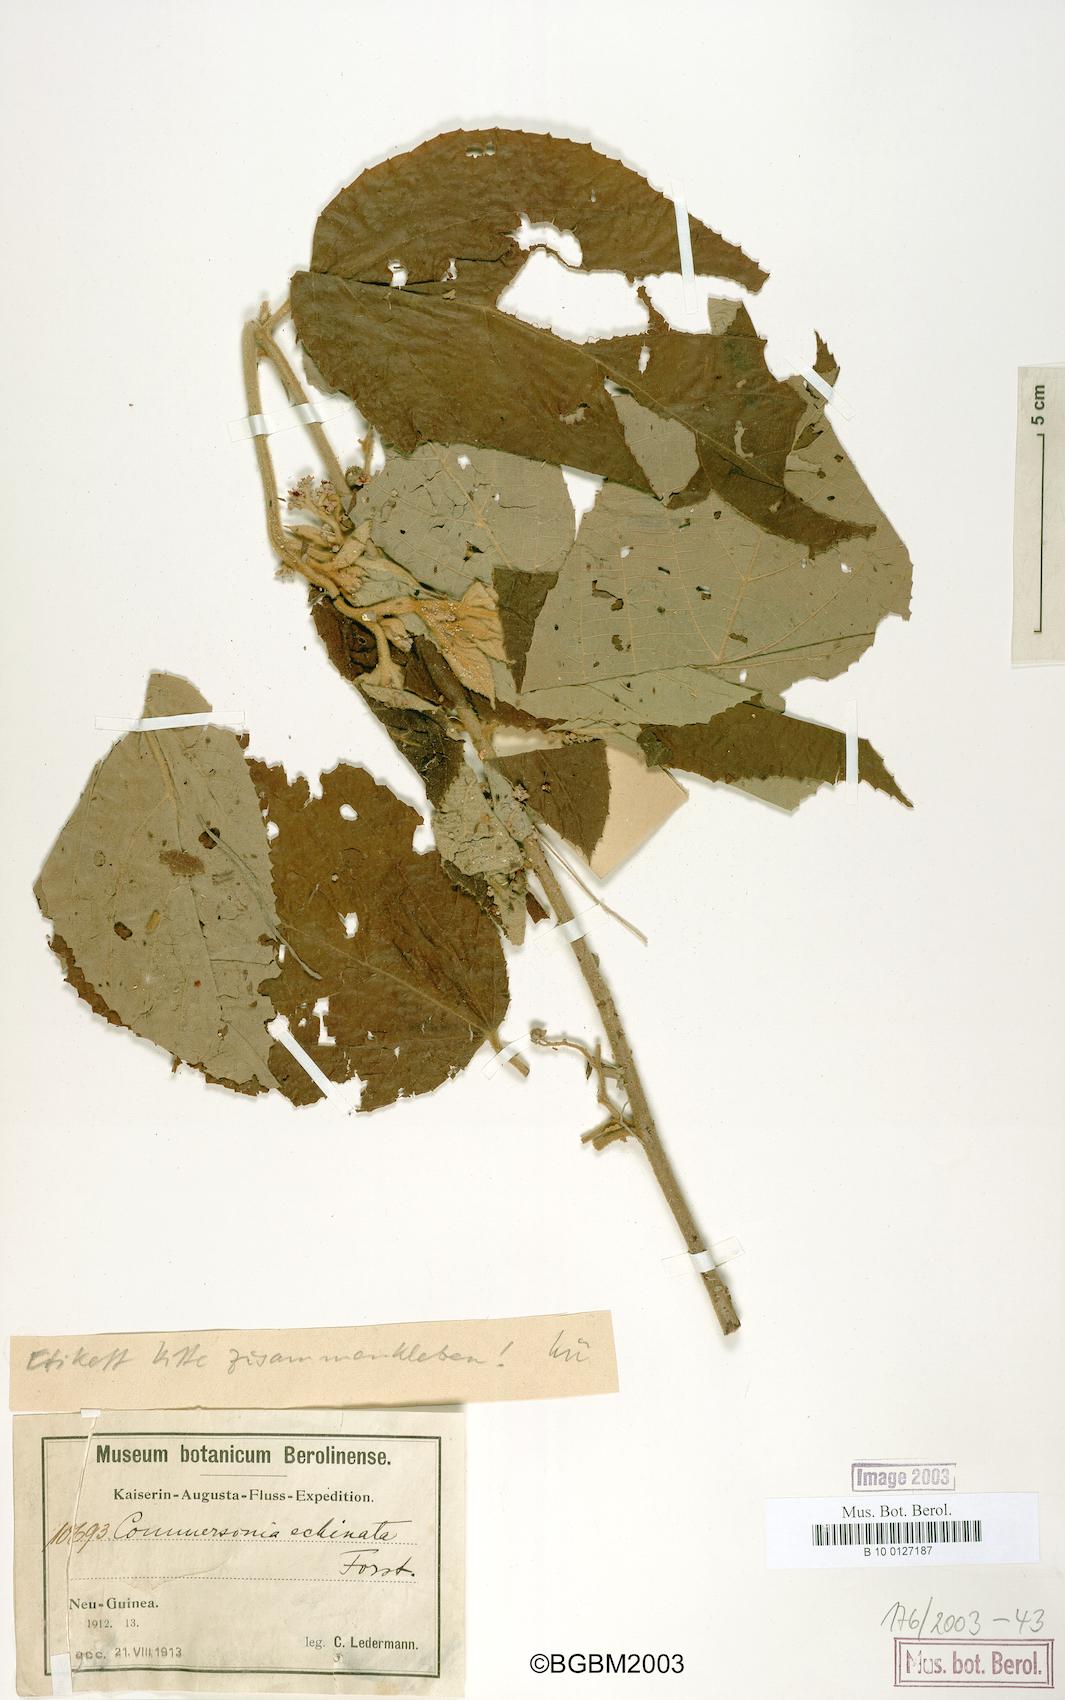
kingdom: Plantae
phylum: Tracheophyta
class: Magnoliopsida
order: Malvales
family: Malvaceae
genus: Commersonia
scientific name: Commersonia echinata
